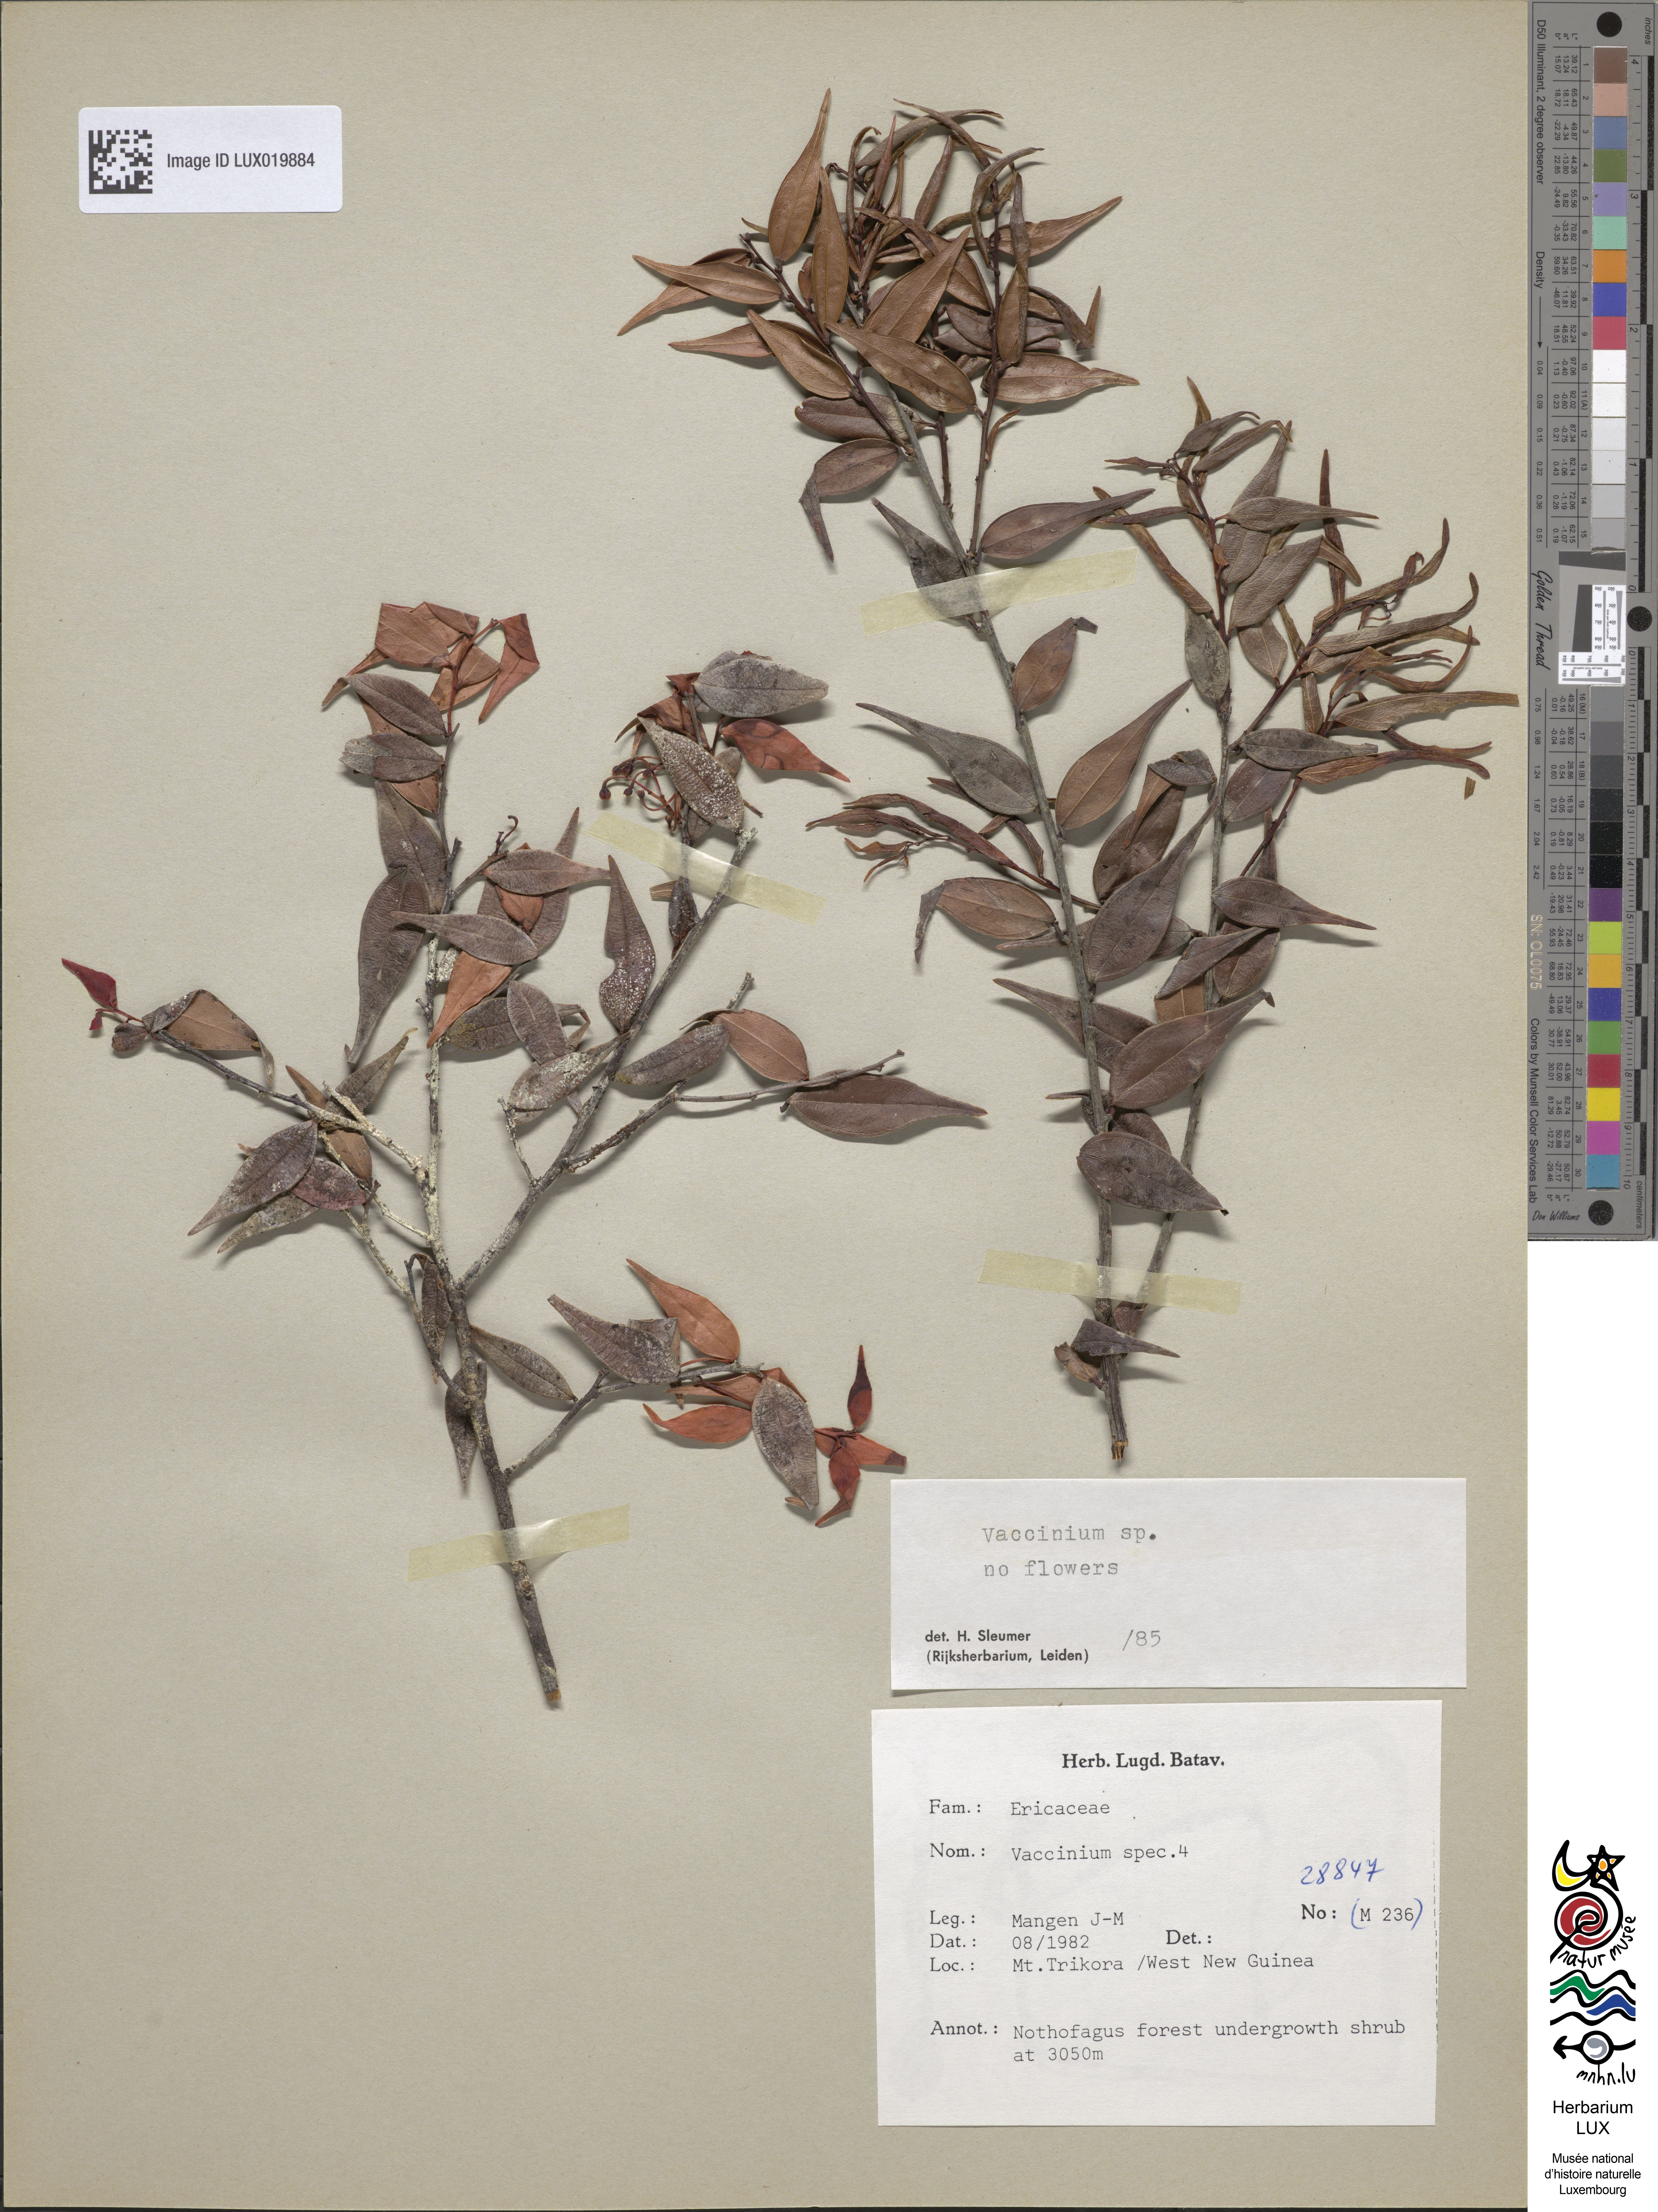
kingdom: Plantae
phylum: Tracheophyta
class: Magnoliopsida
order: Ericales
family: Ericaceae
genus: Vaccinium
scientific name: Vaccinium
